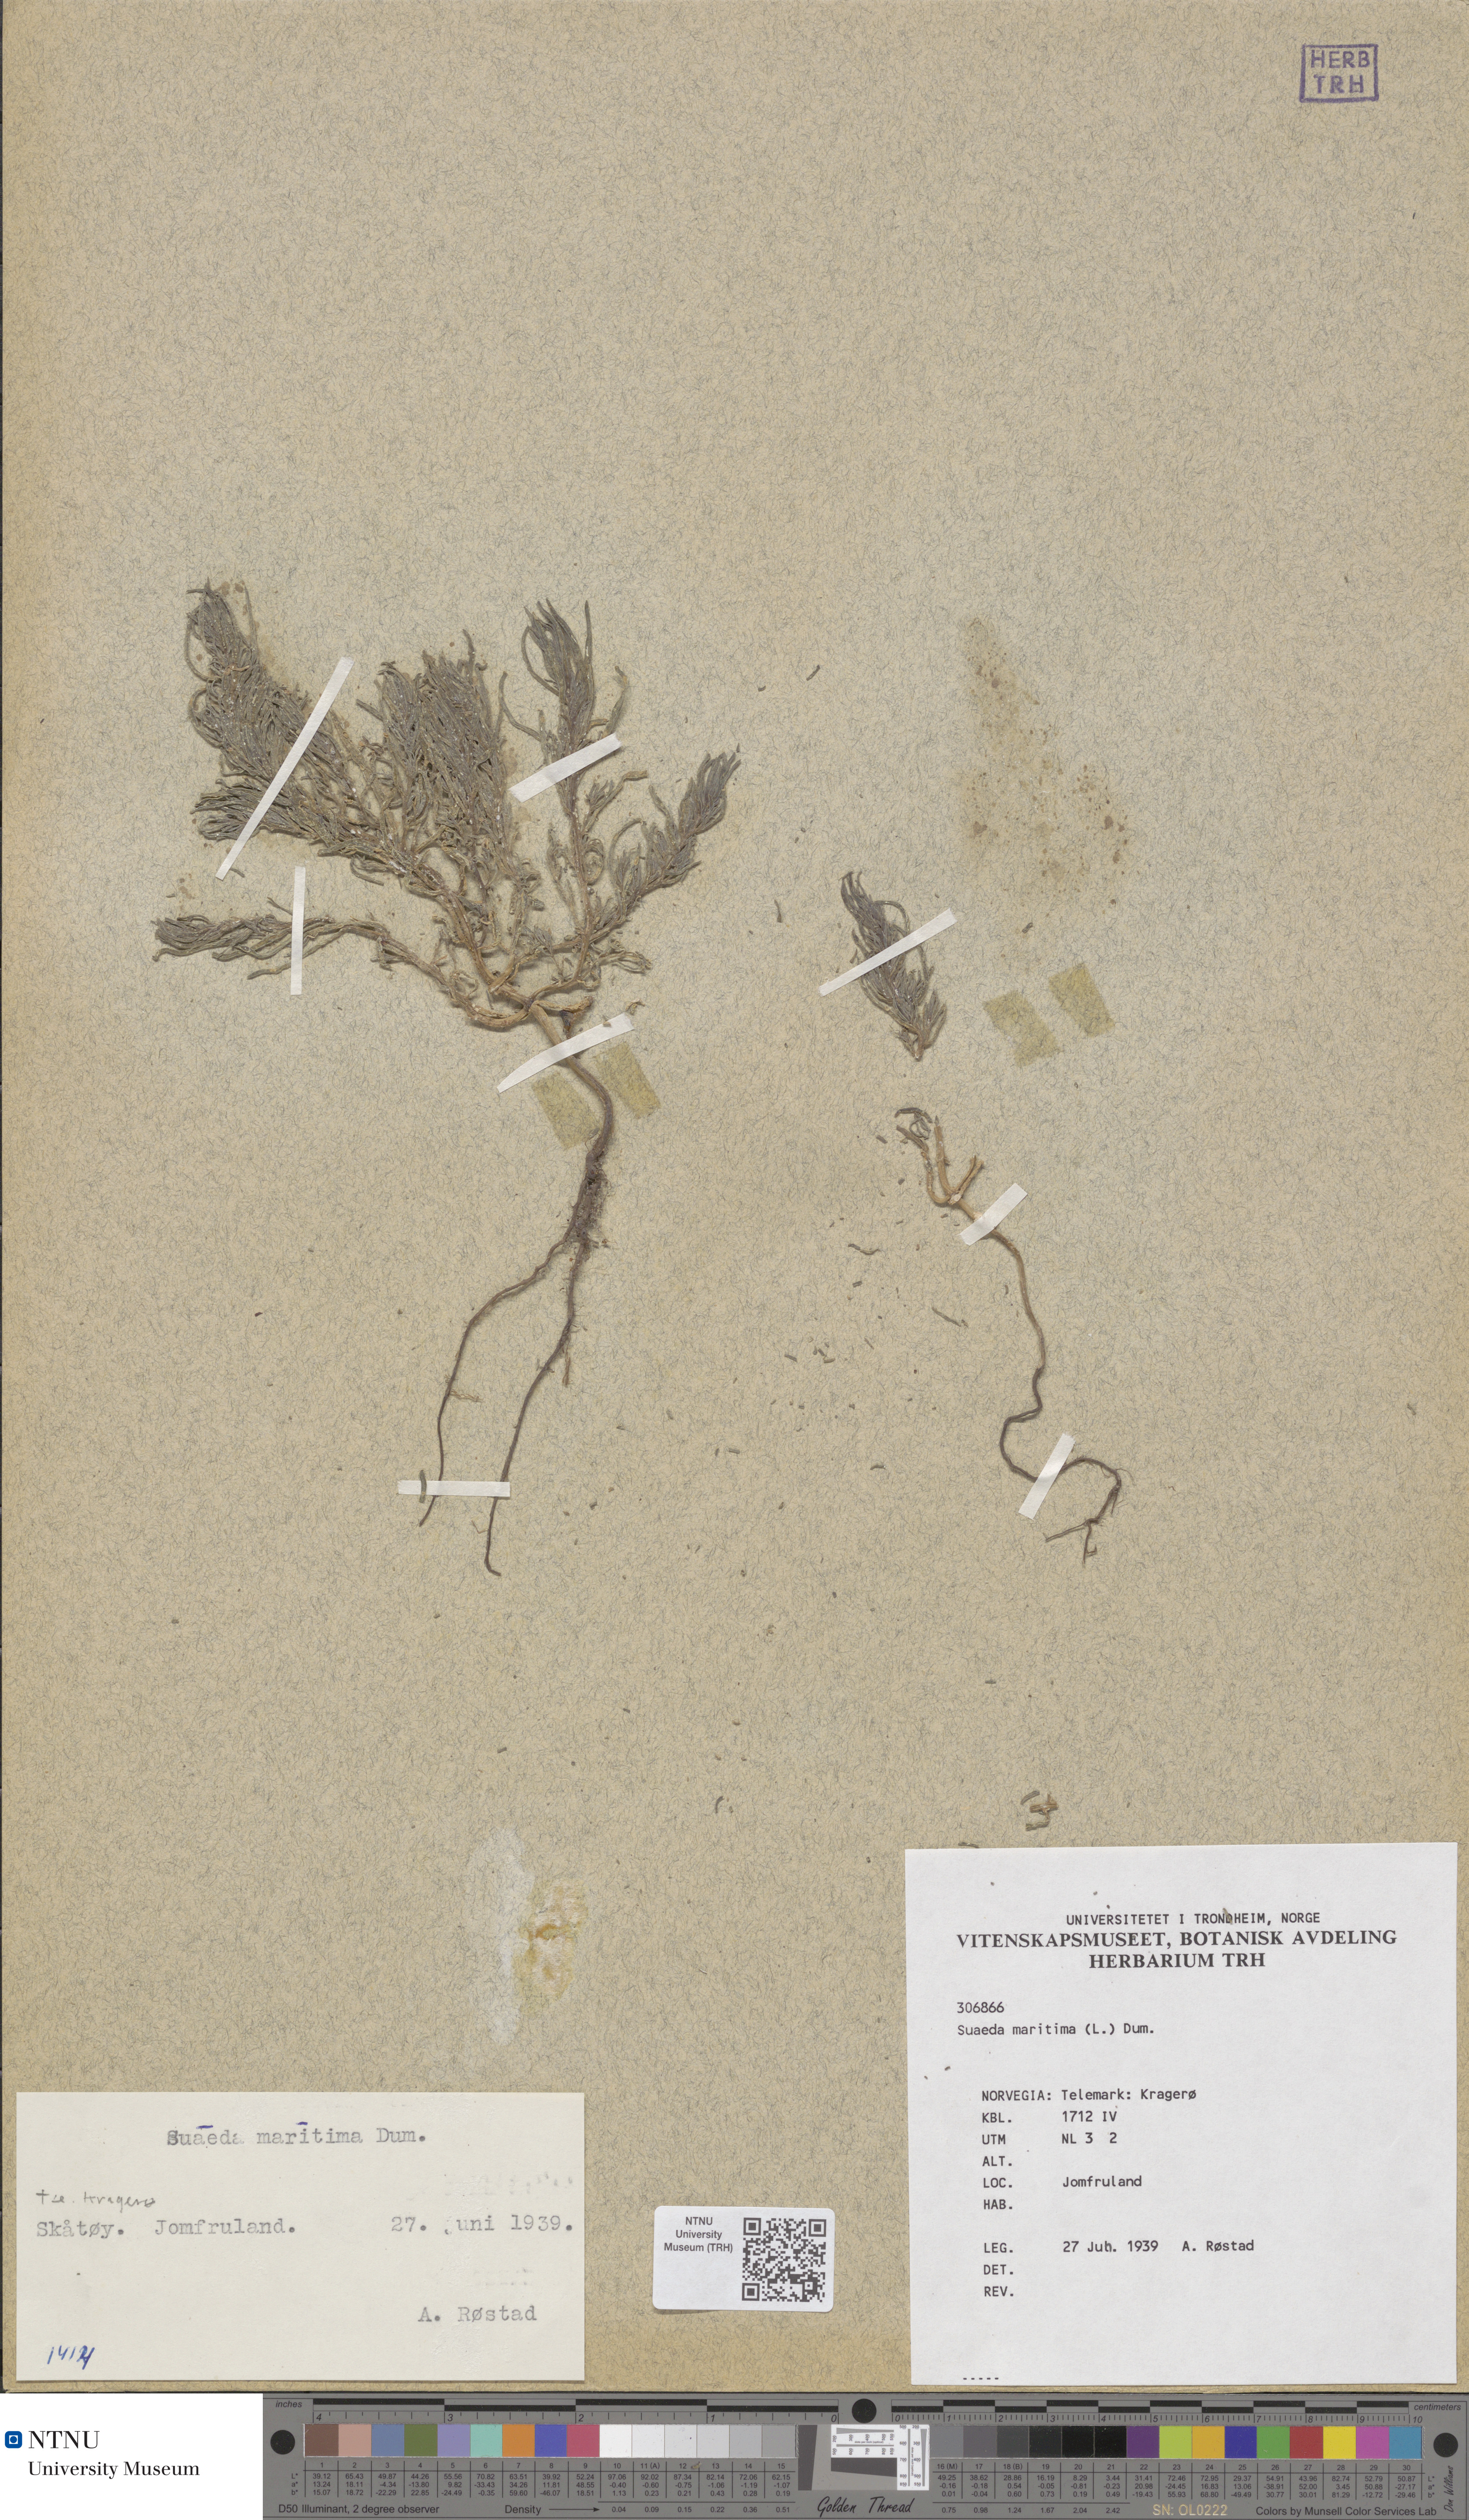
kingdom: Plantae
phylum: Tracheophyta
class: Magnoliopsida
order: Caryophyllales
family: Amaranthaceae
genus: Suaeda
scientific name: Suaeda maritima
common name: Annual sea-blite
